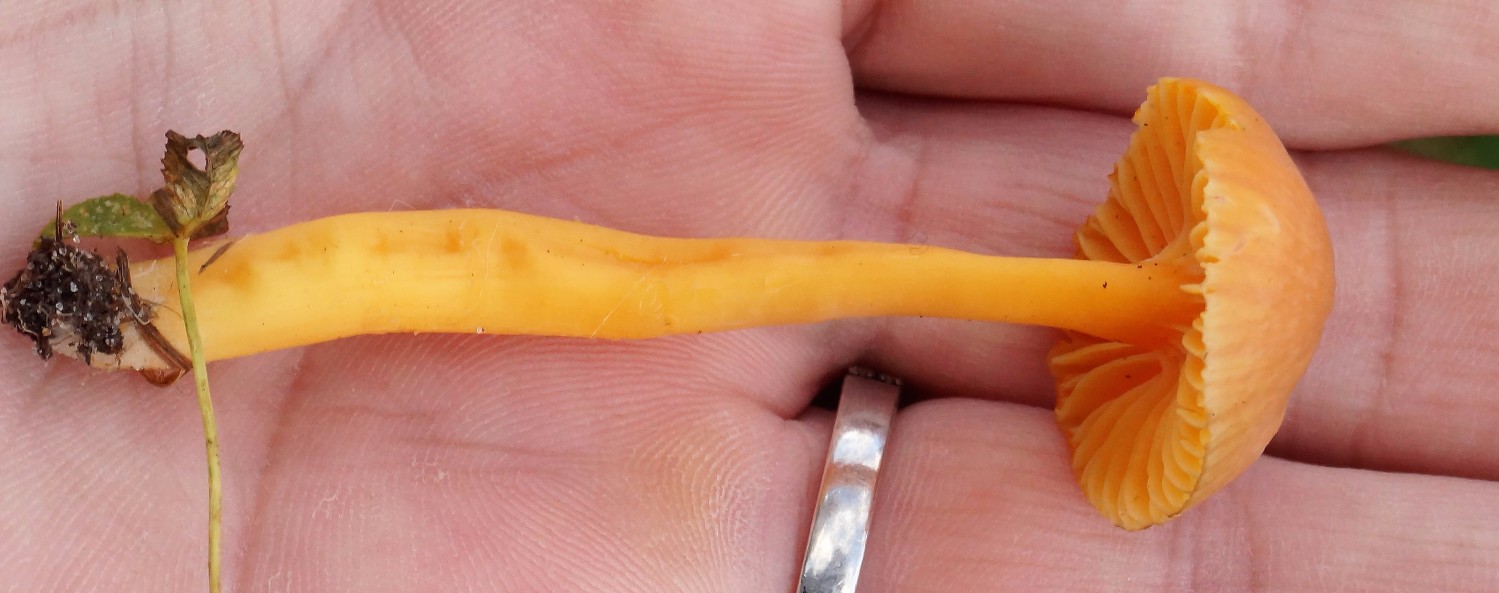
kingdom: Fungi
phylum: Basidiomycota
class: Agaricomycetes
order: Agaricales
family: Hygrophoraceae
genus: Hygrocybe
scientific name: Hygrocybe ceracea
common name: voksgul vokshat
